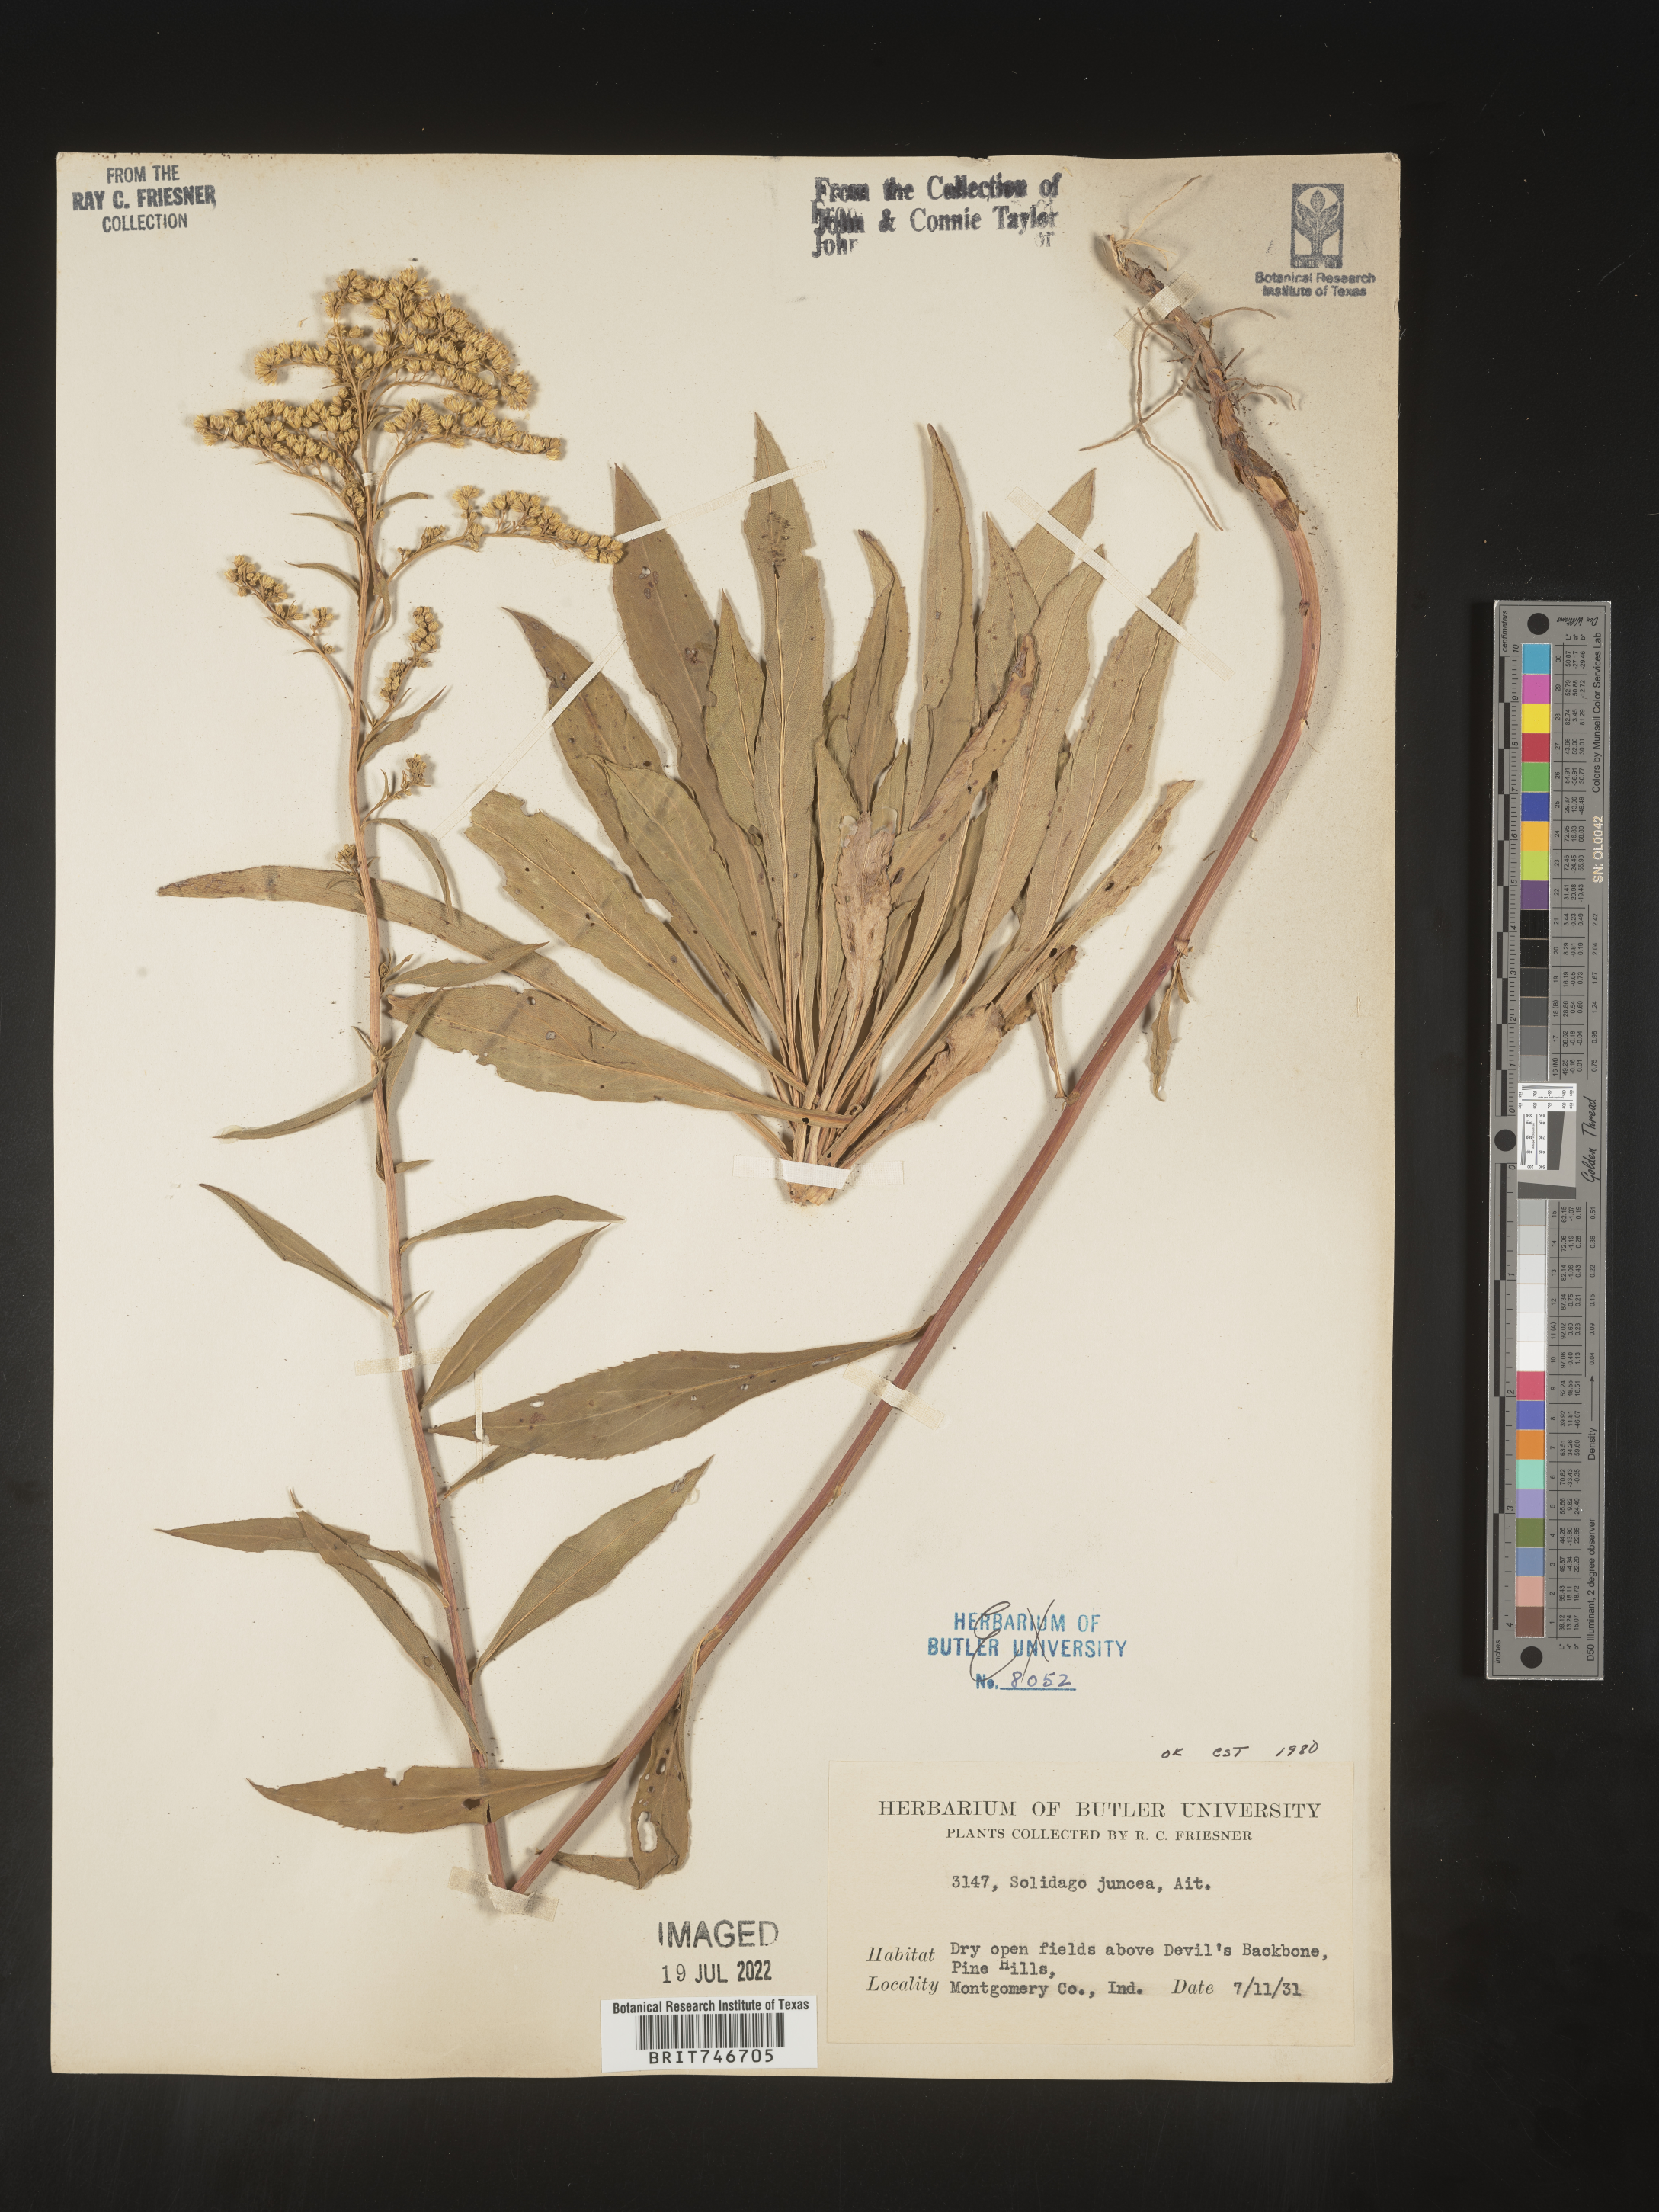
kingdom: Plantae
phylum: Tracheophyta
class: Magnoliopsida
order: Asterales
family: Asteraceae
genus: Solidago
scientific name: Solidago juncea
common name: Early goldenrod
